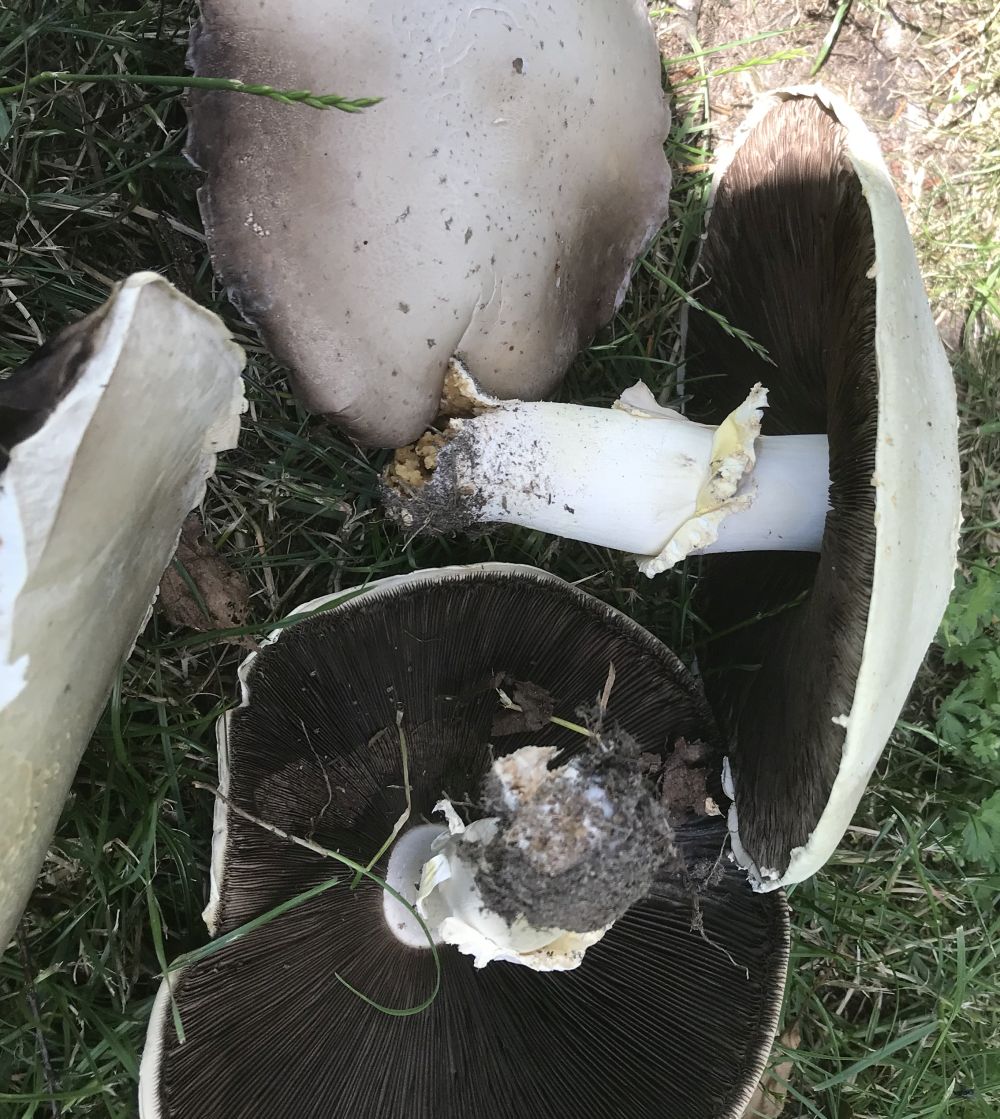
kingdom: Fungi
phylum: Basidiomycota
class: Agaricomycetes
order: Agaricales
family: Agaricaceae
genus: Agaricus
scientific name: Agaricus arvensis
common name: ager-champignon
